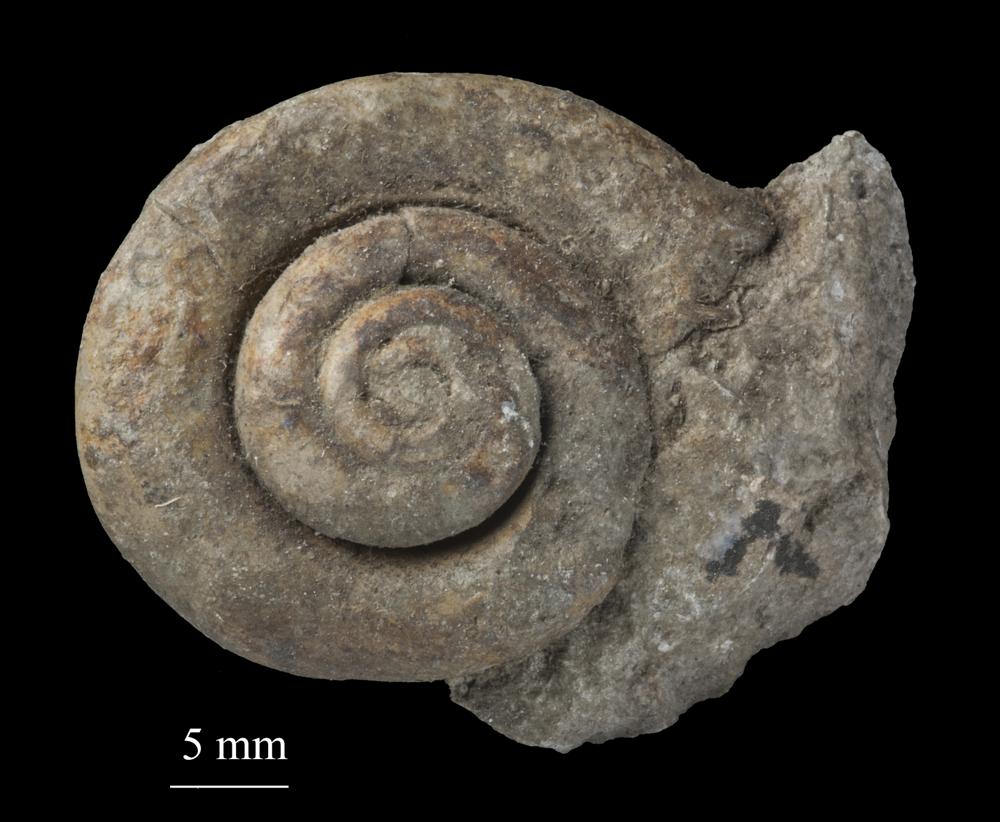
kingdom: Animalia
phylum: Mollusca
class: Gastropoda
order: Neogastropoda
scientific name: Neogastropoda
